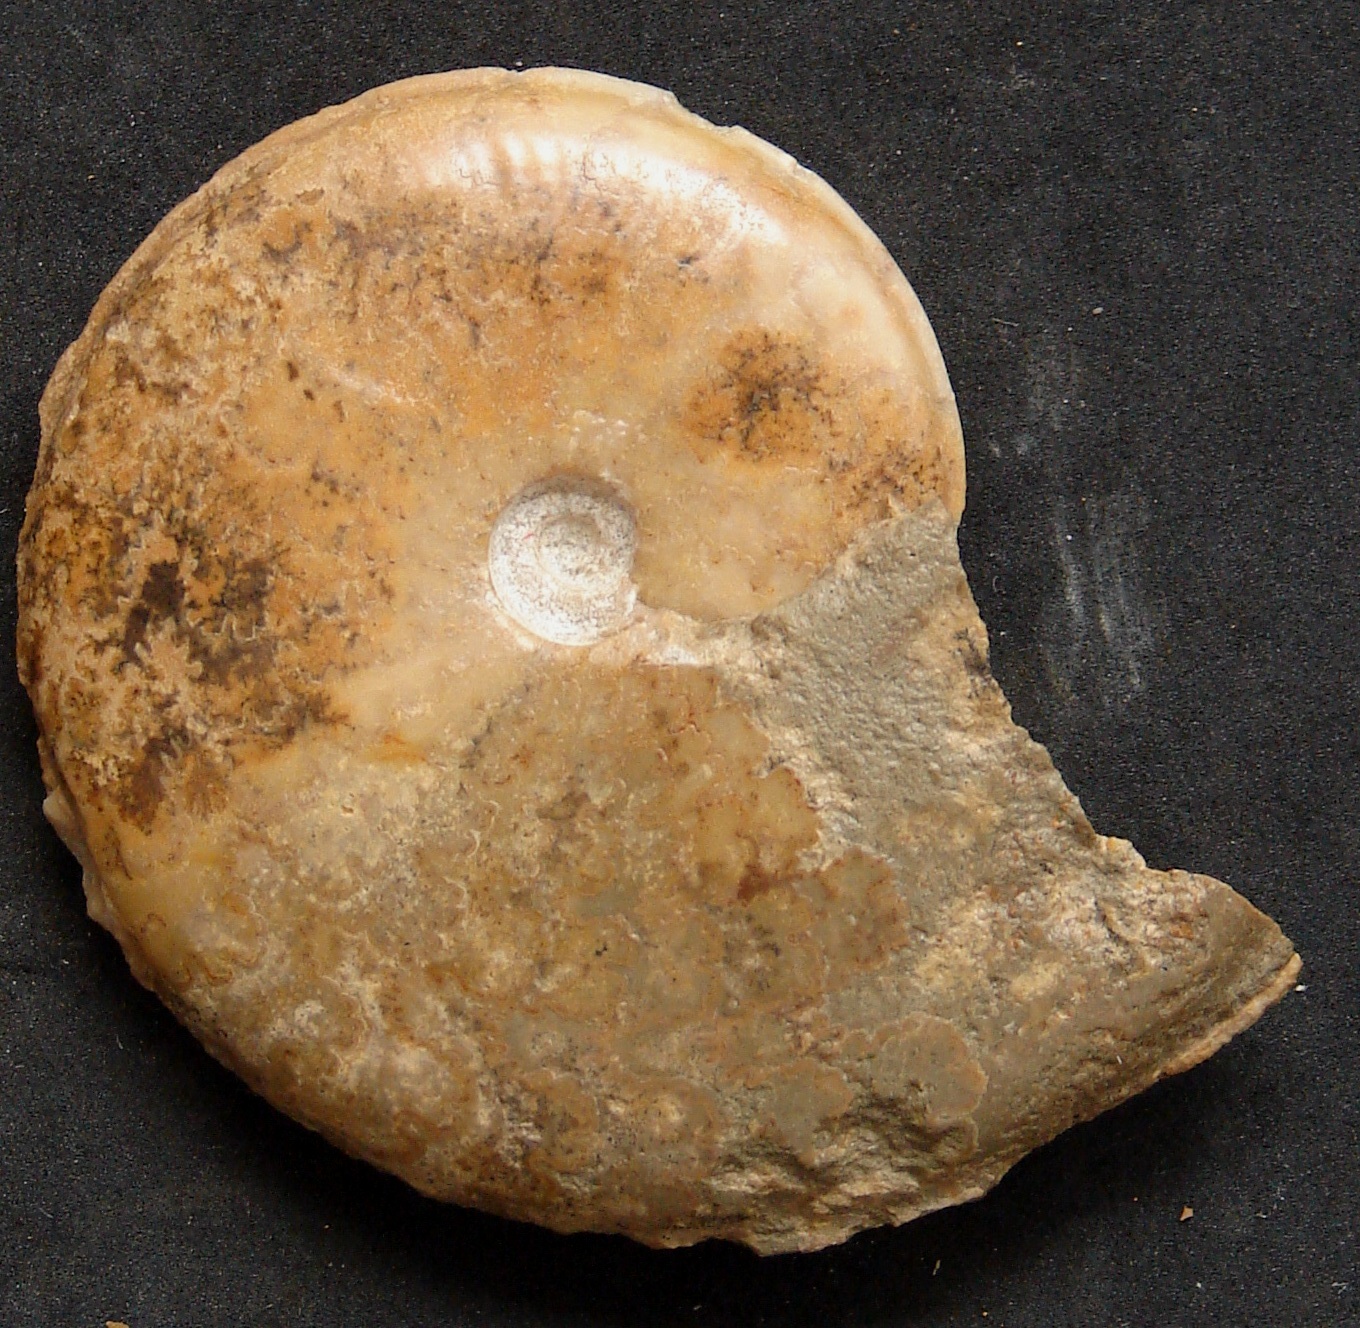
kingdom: Animalia
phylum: Mollusca
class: Cephalopoda
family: Graphoceratidae
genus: Hyperlioceras
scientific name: Hyperlioceras
